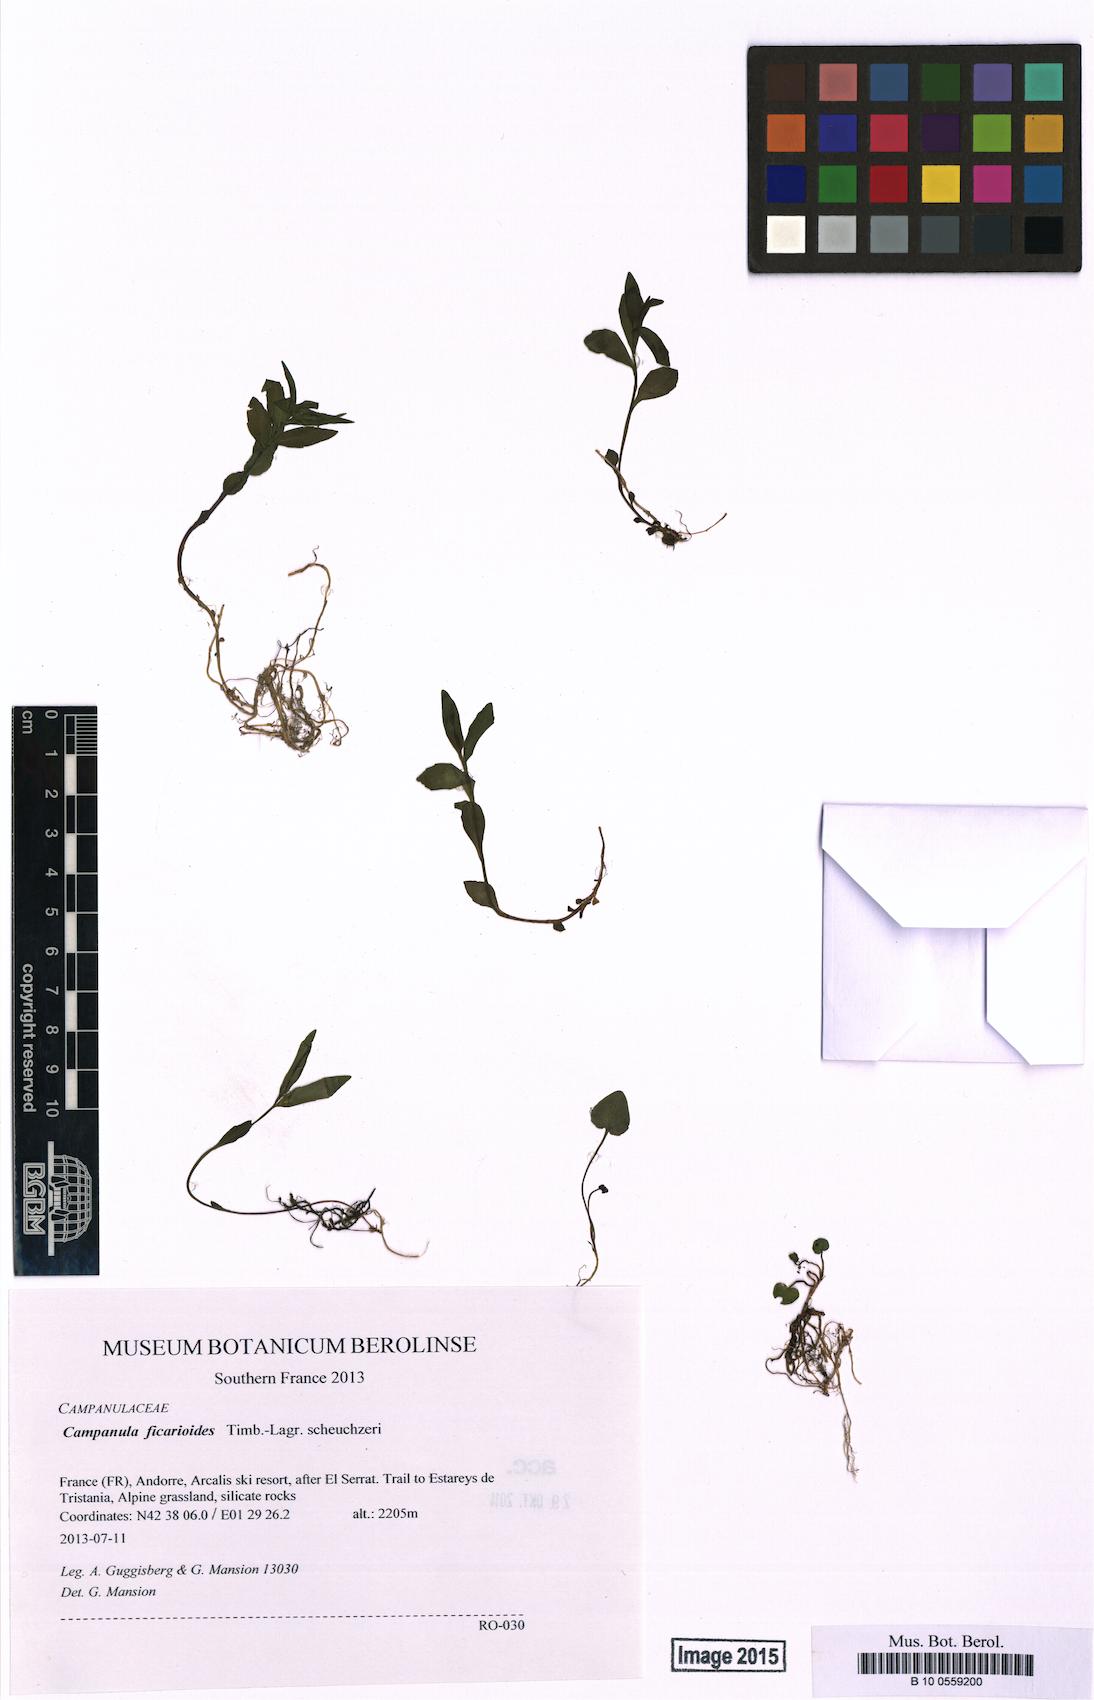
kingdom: Plantae
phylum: Tracheophyta
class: Magnoliopsida
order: Asterales
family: Campanulaceae
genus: Campanula
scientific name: Campanula ficarioides
